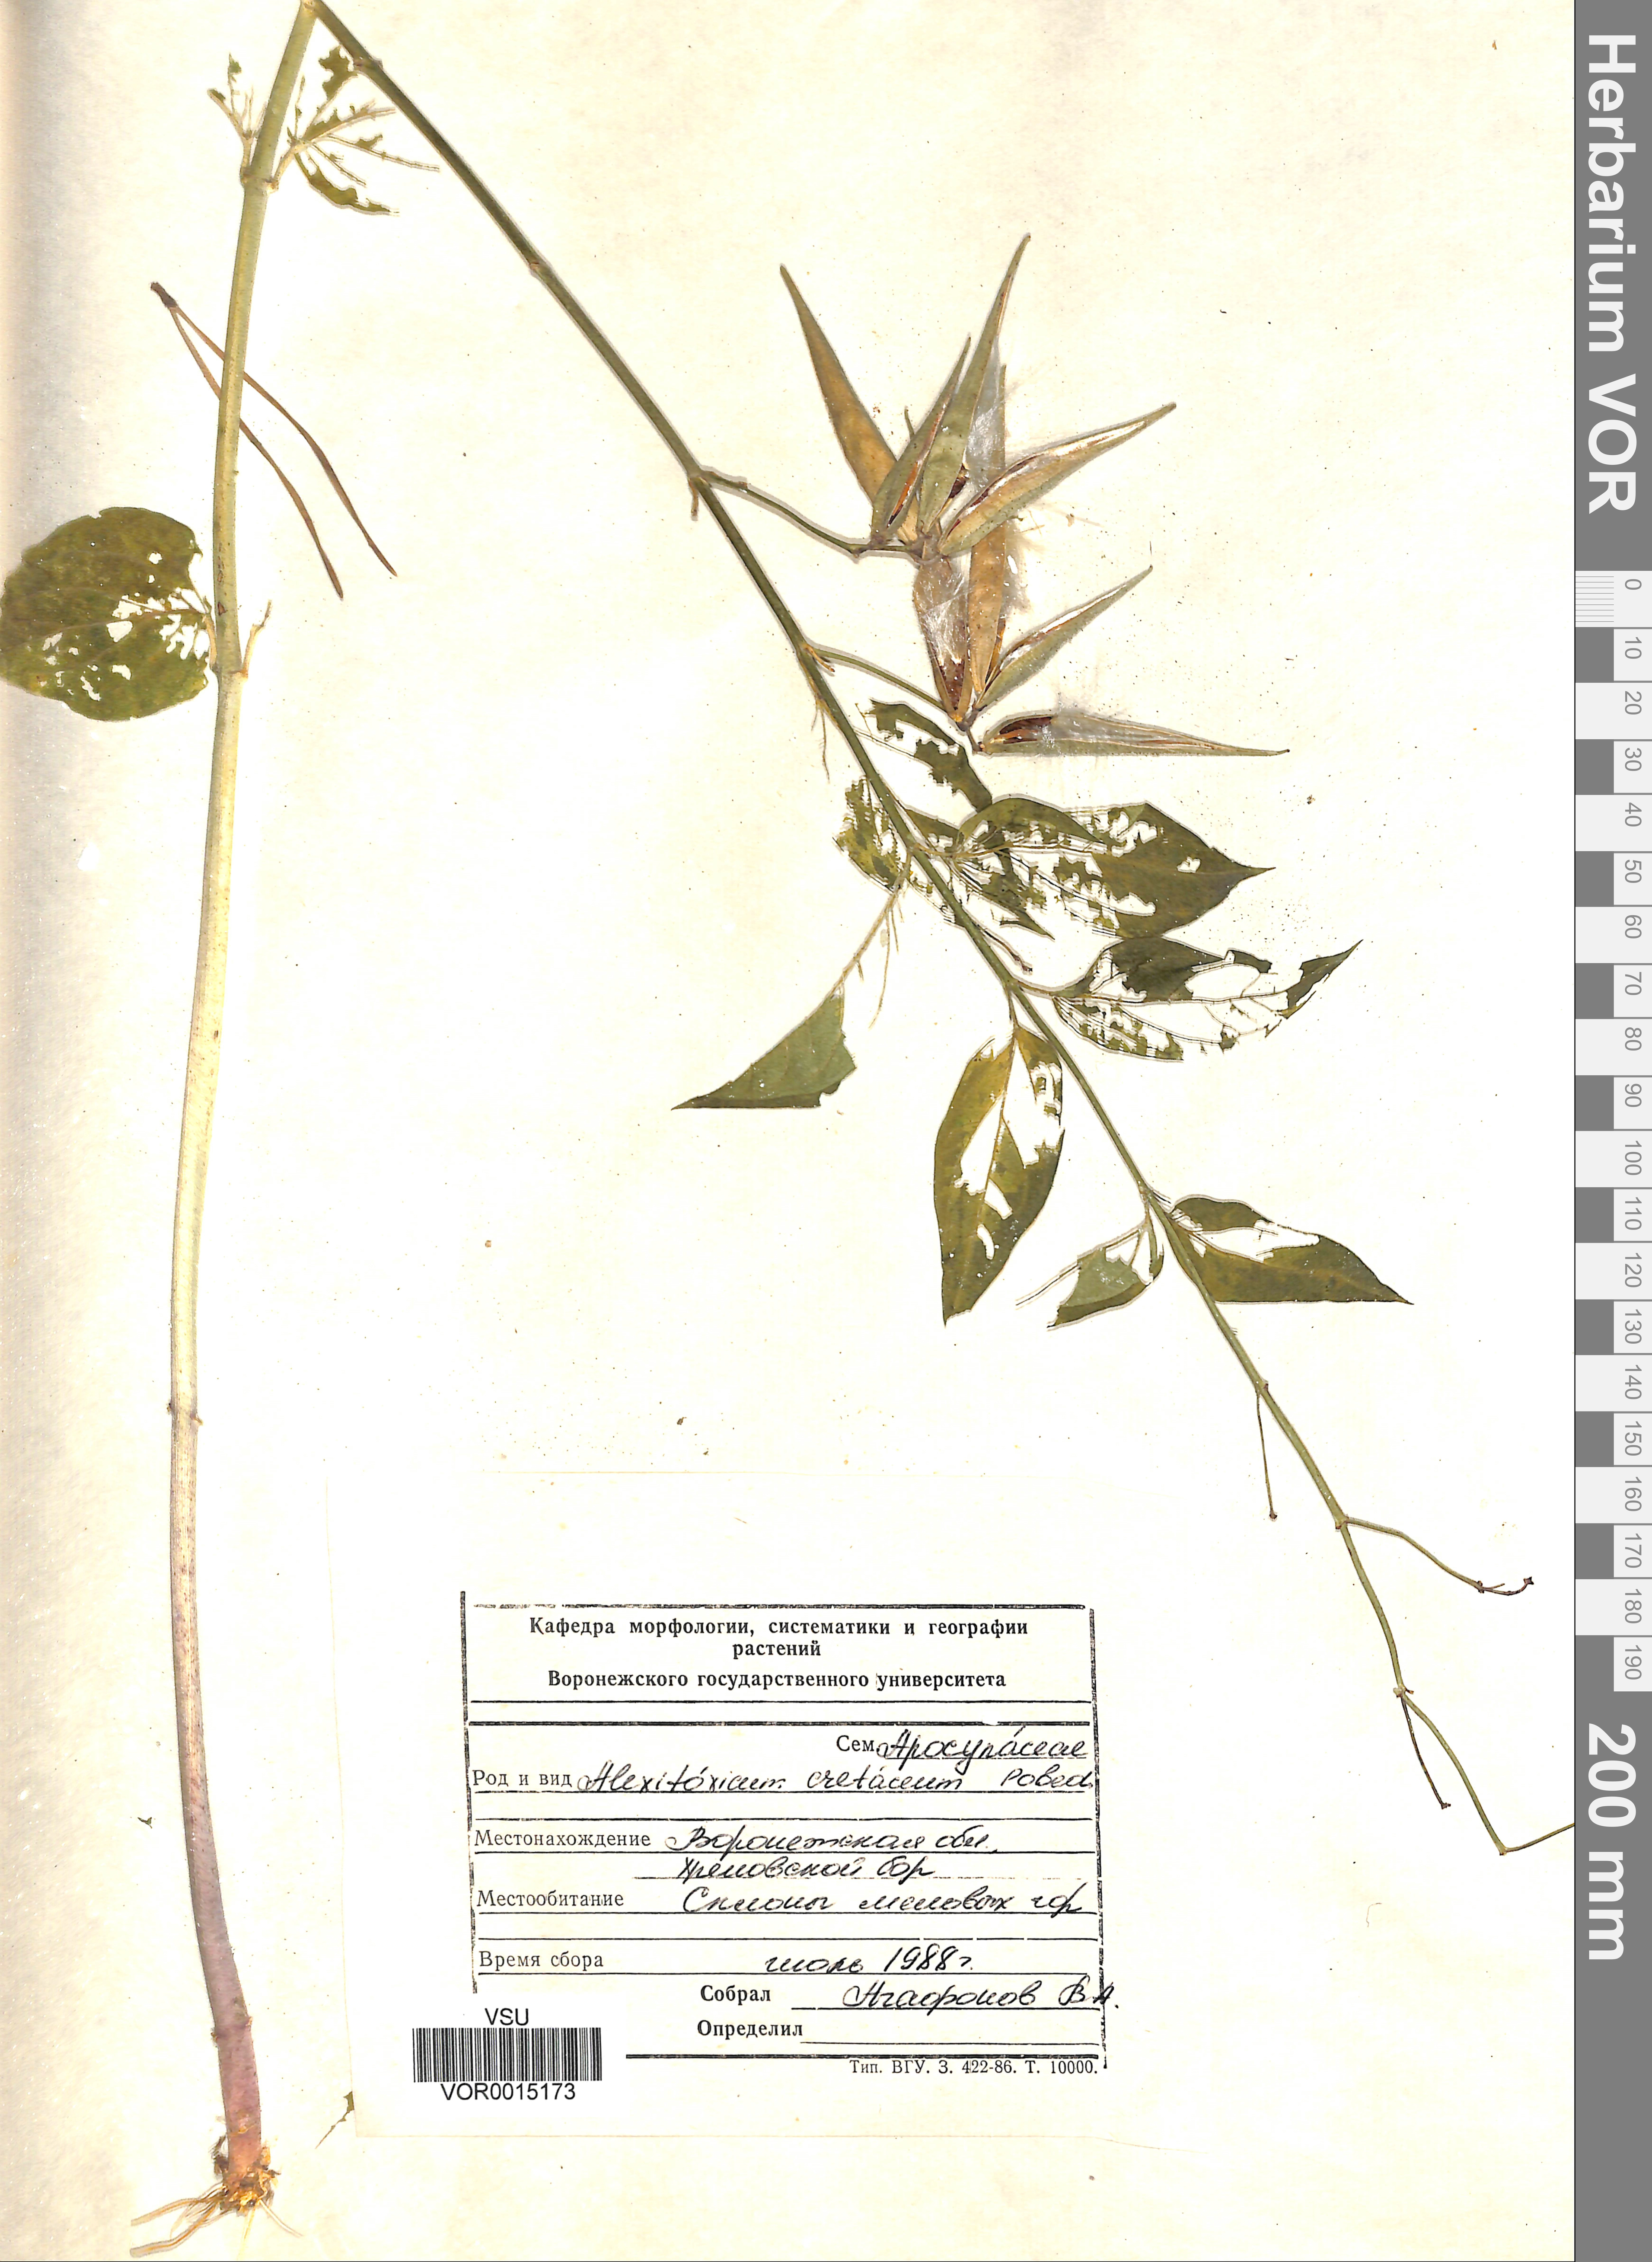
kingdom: Plantae
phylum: Tracheophyta
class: Magnoliopsida
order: Gentianales
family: Apocynaceae
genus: Vincetoxicum
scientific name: Vincetoxicum hirundinaria
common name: White swallowwort
